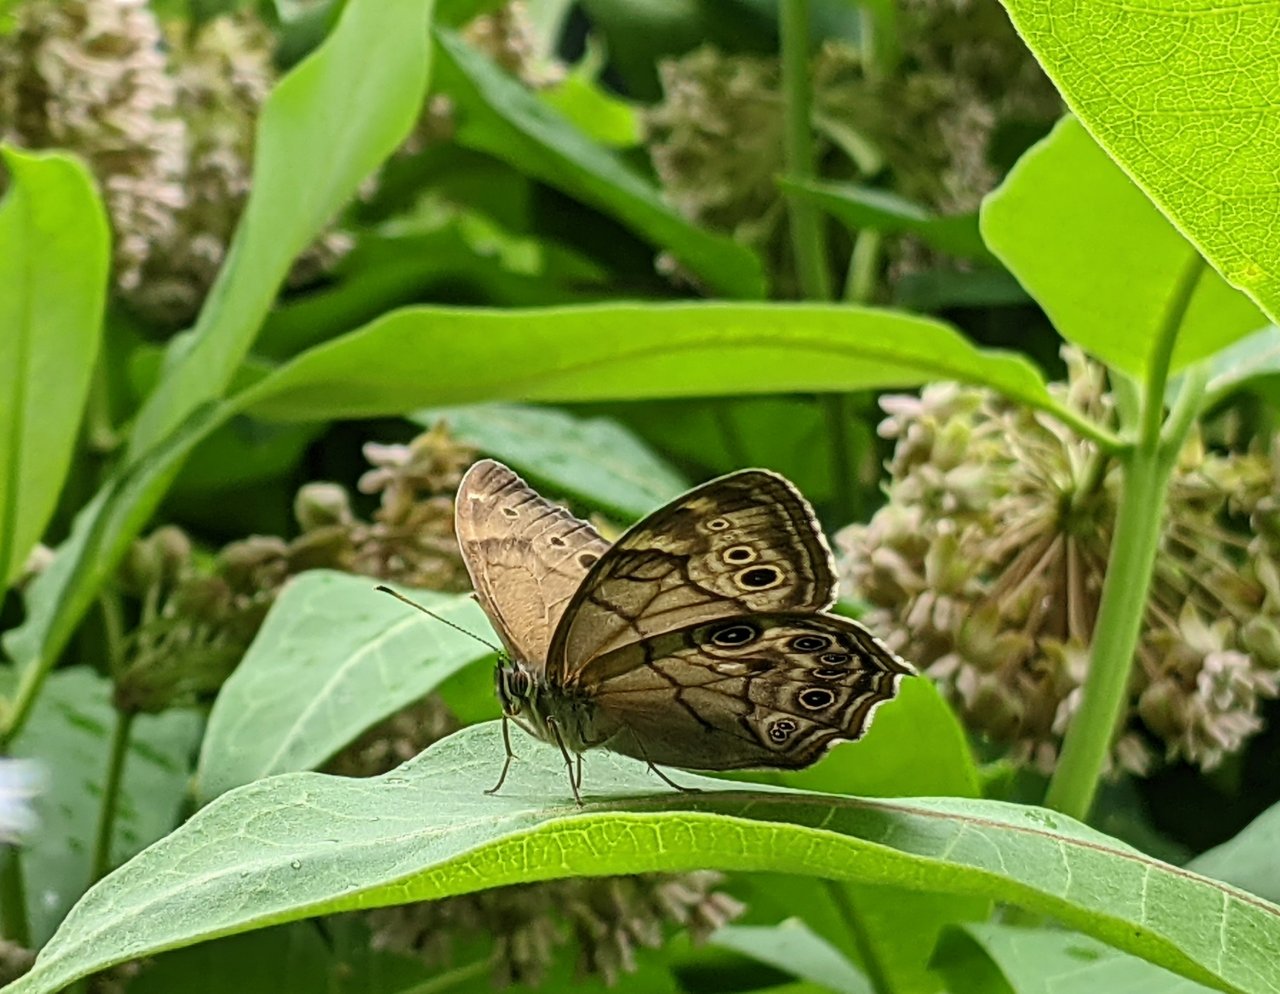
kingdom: Animalia
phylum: Arthropoda
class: Insecta
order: Lepidoptera
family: Nymphalidae
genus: Lethe
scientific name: Lethe anthedon
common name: Northern Pearly-Eye
